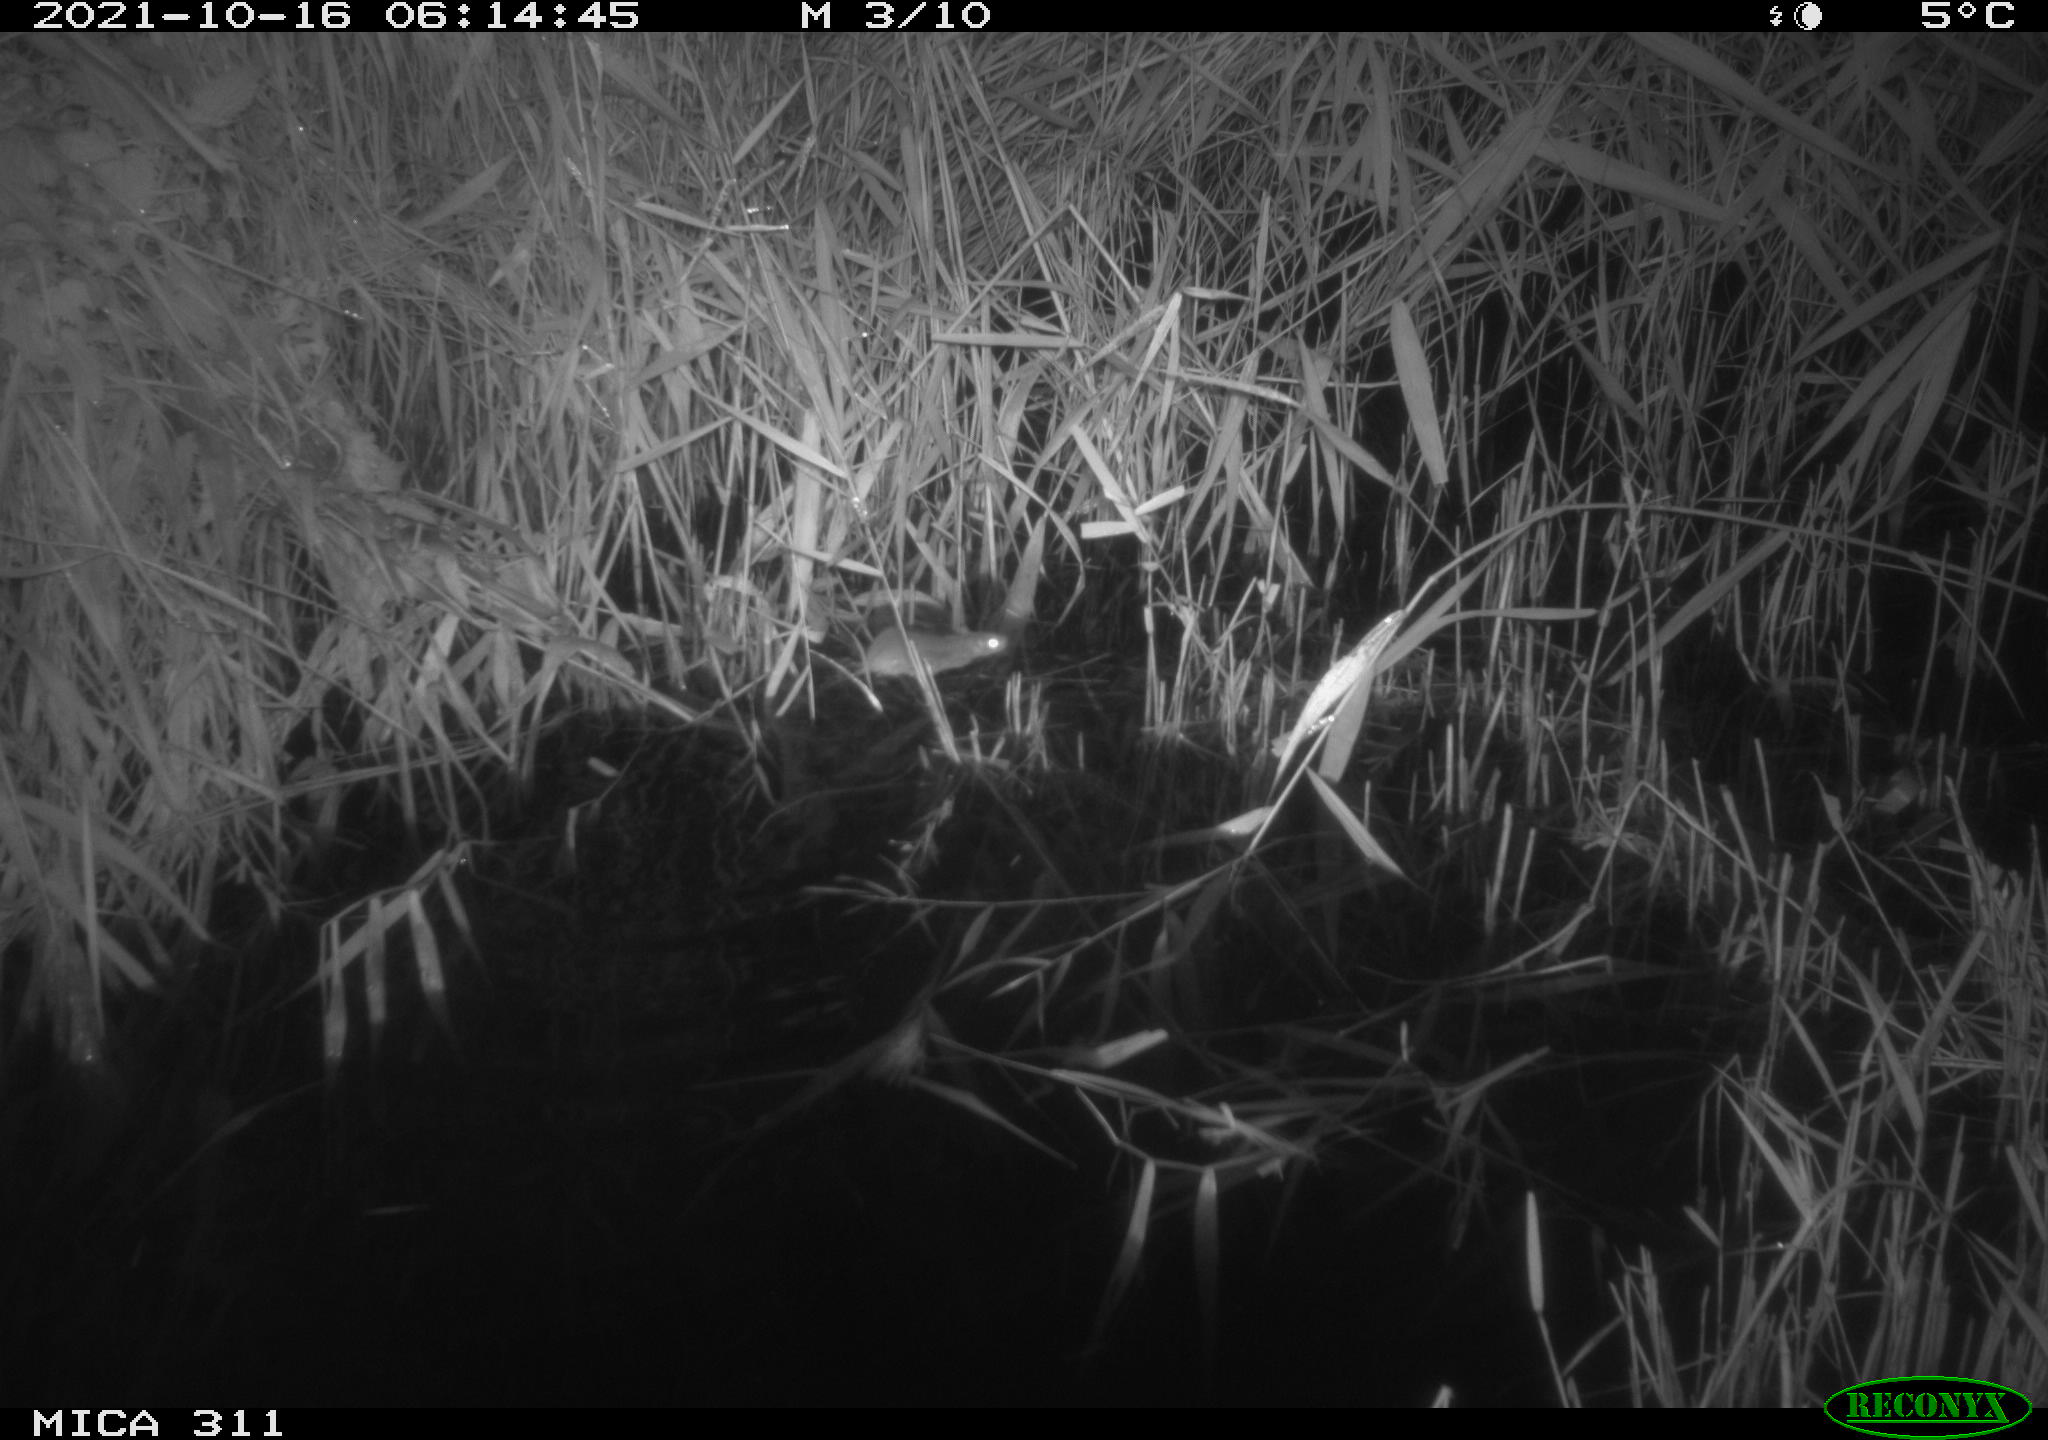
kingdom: Animalia
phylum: Chordata
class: Mammalia
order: Rodentia
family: Muridae
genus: Rattus
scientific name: Rattus norvegicus
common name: Brown rat
